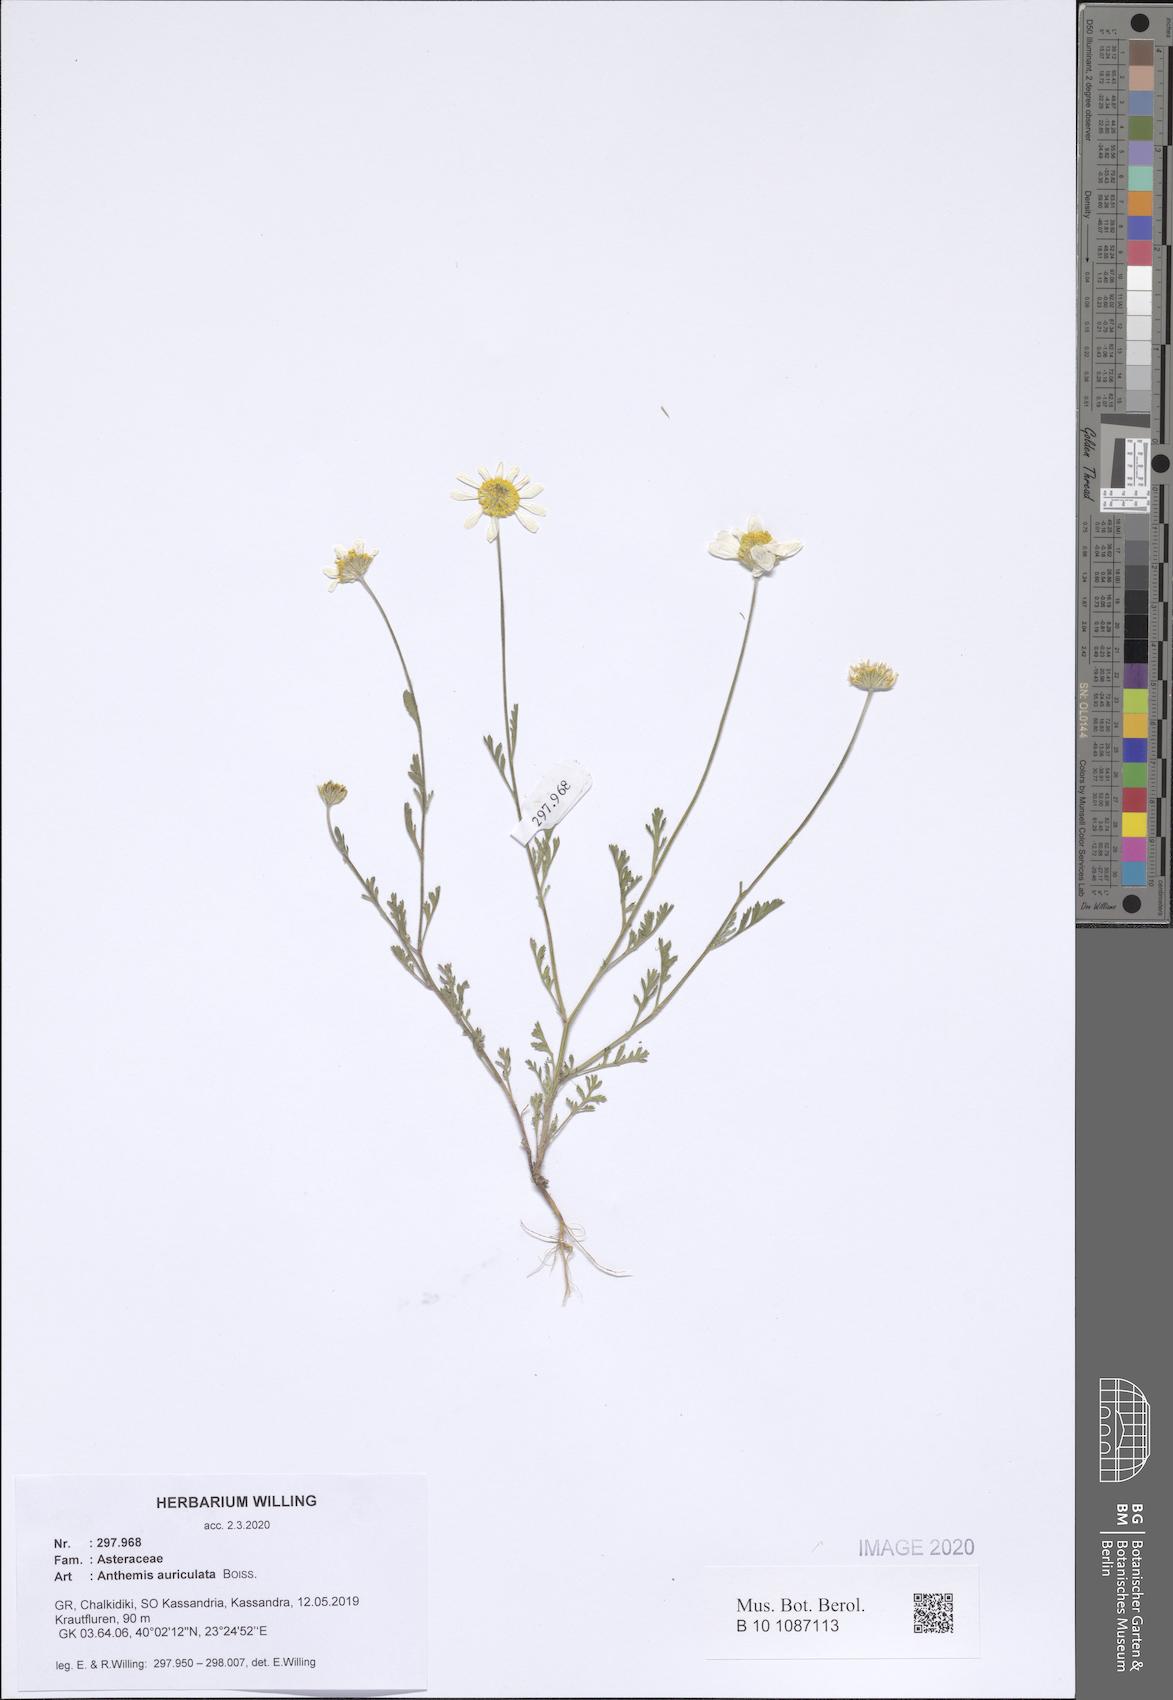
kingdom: Plantae
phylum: Tracheophyta
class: Magnoliopsida
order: Asterales
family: Asteraceae
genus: Anthemis
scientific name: Anthemis auriculata
